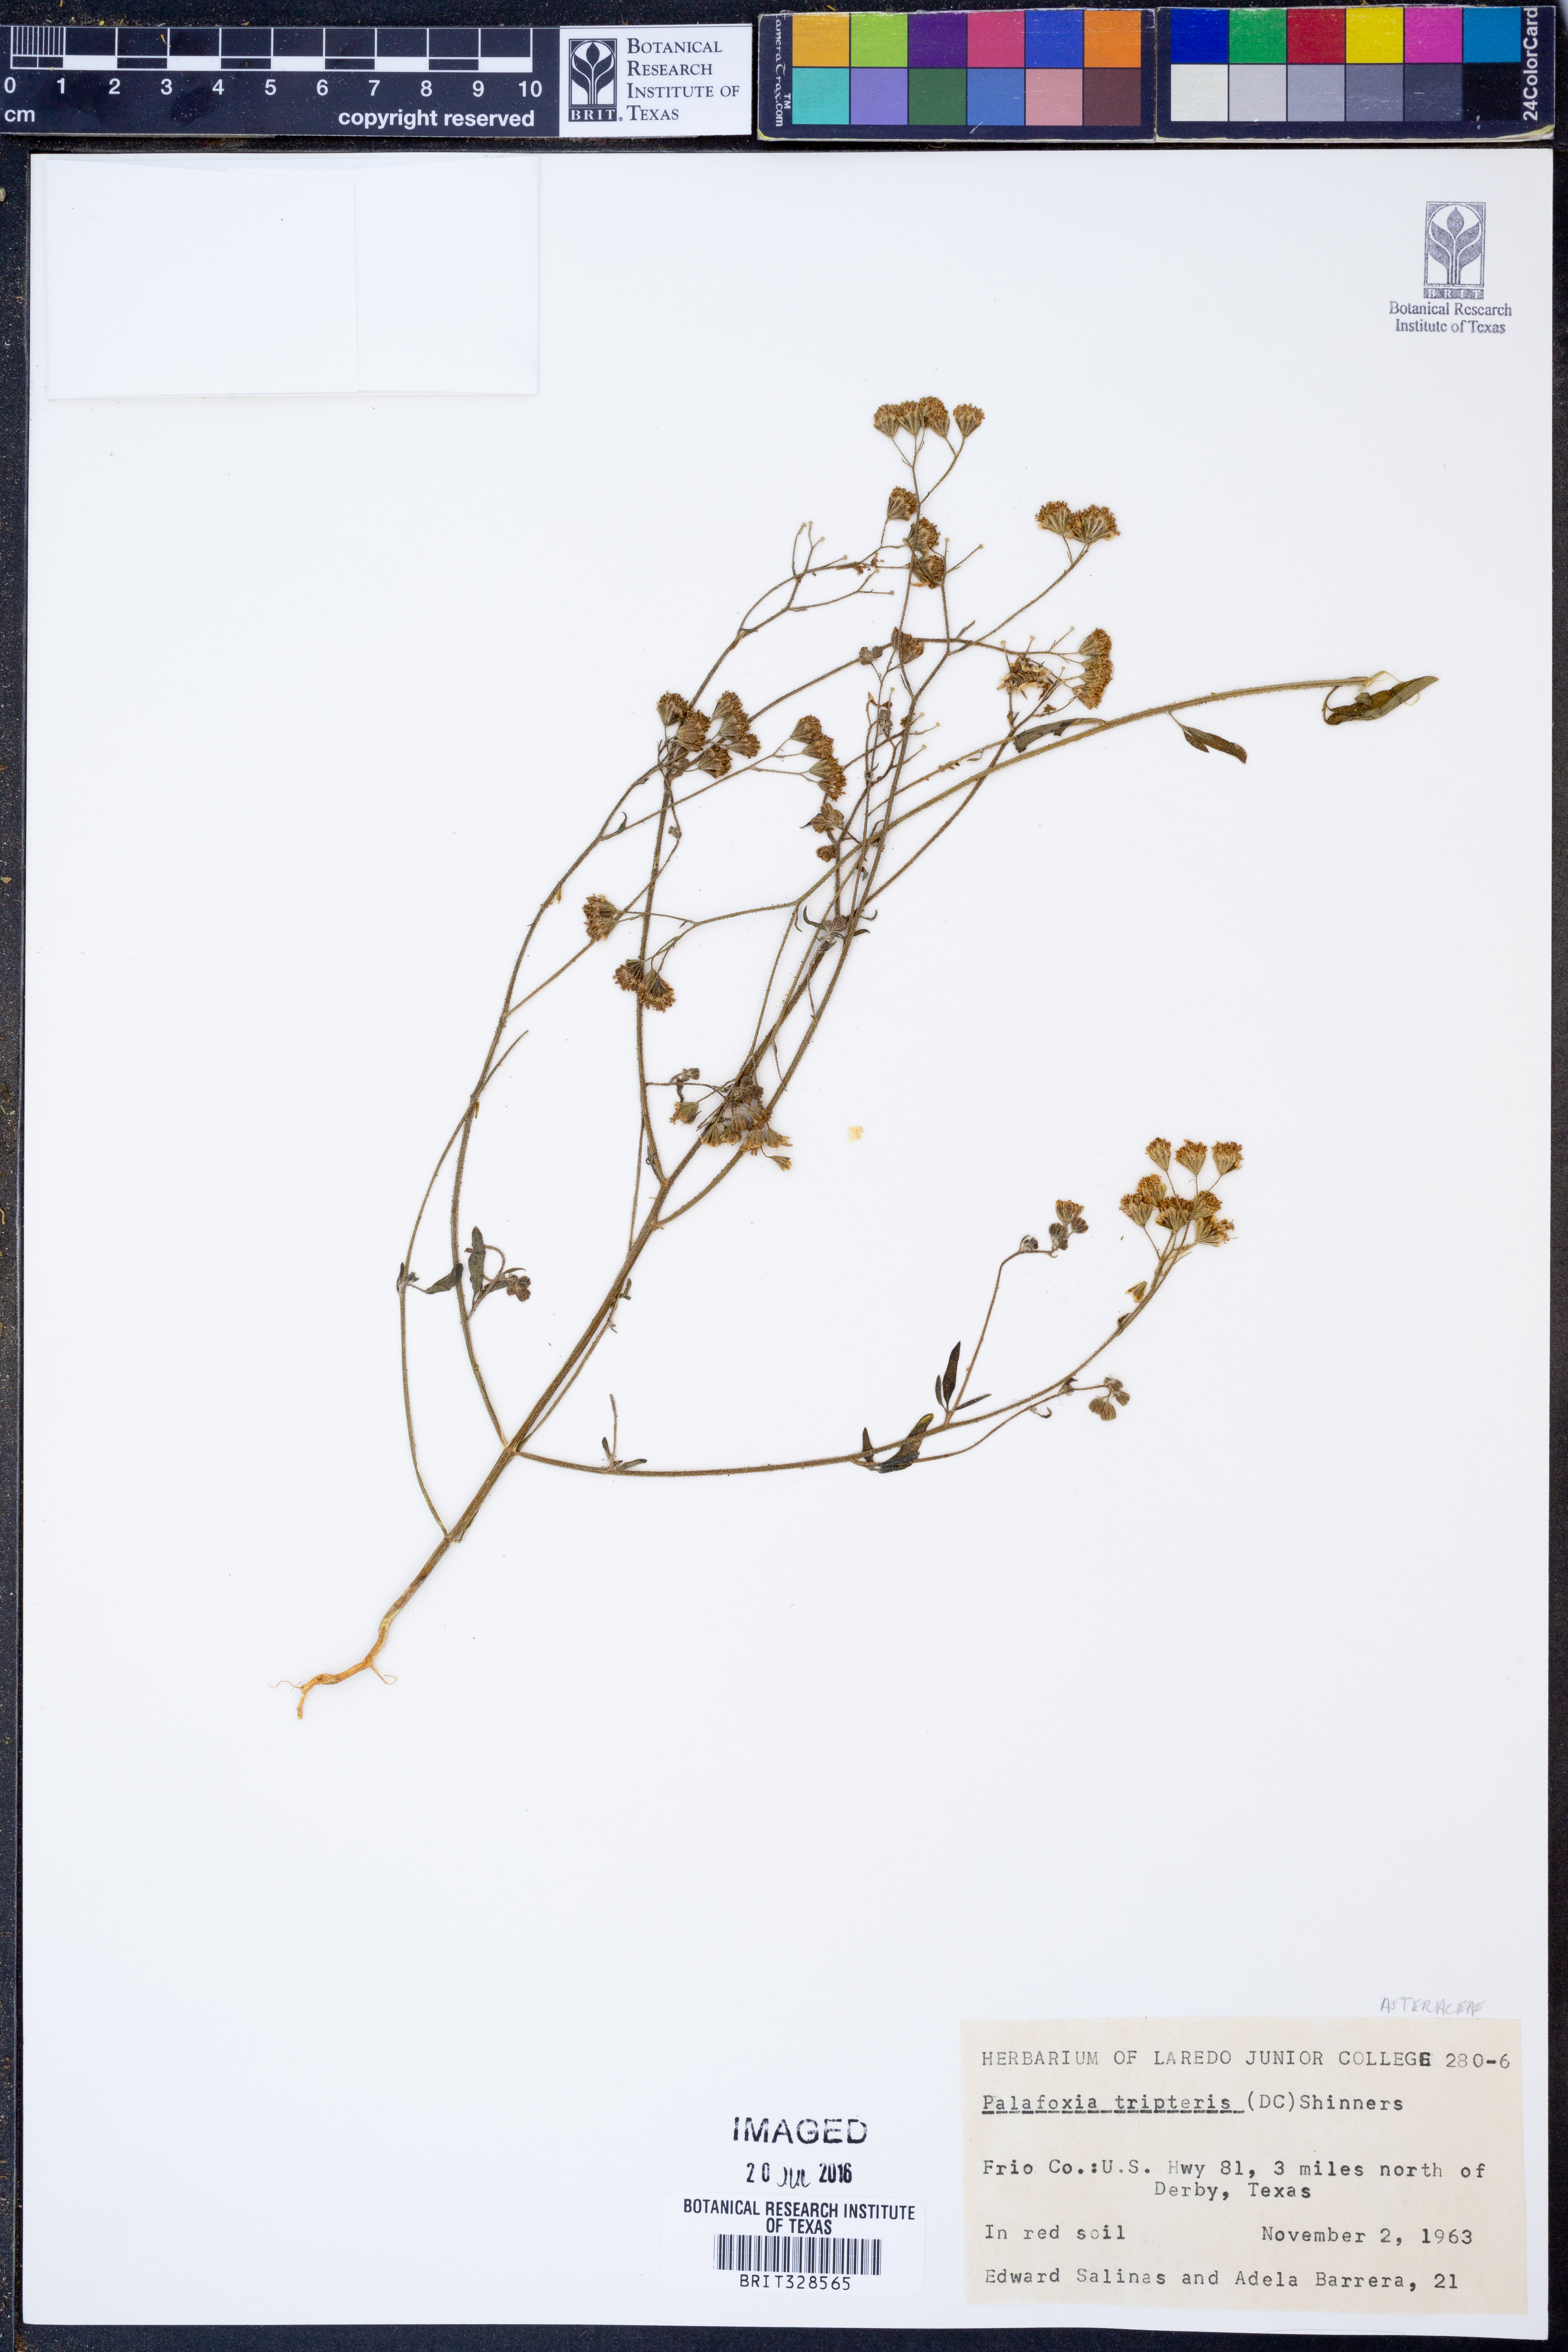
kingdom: Plantae
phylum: Tracheophyta
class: Magnoliopsida
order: Asterales
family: Asteraceae
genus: Florestina
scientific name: Florestina tripteris
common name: Sticky florestina
